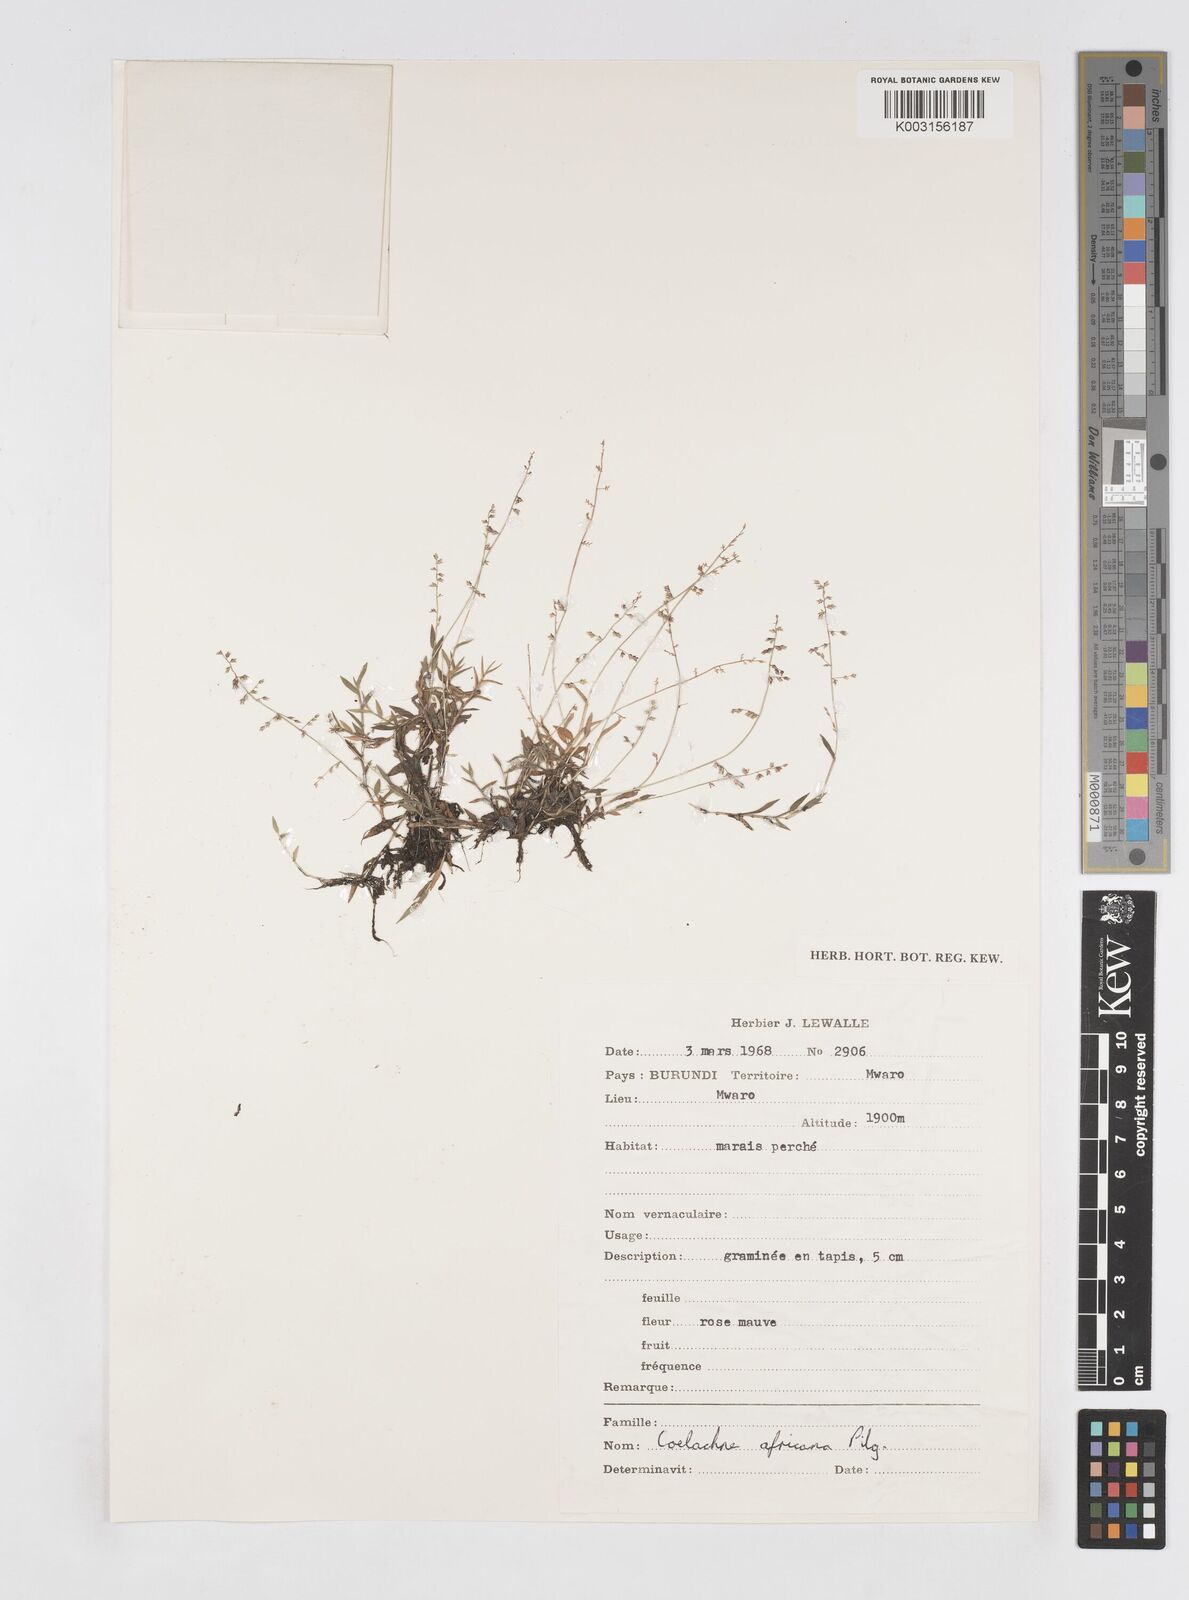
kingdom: Plantae
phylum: Tracheophyta
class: Liliopsida
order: Poales
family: Poaceae
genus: Coelachne
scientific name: Coelachne africana
